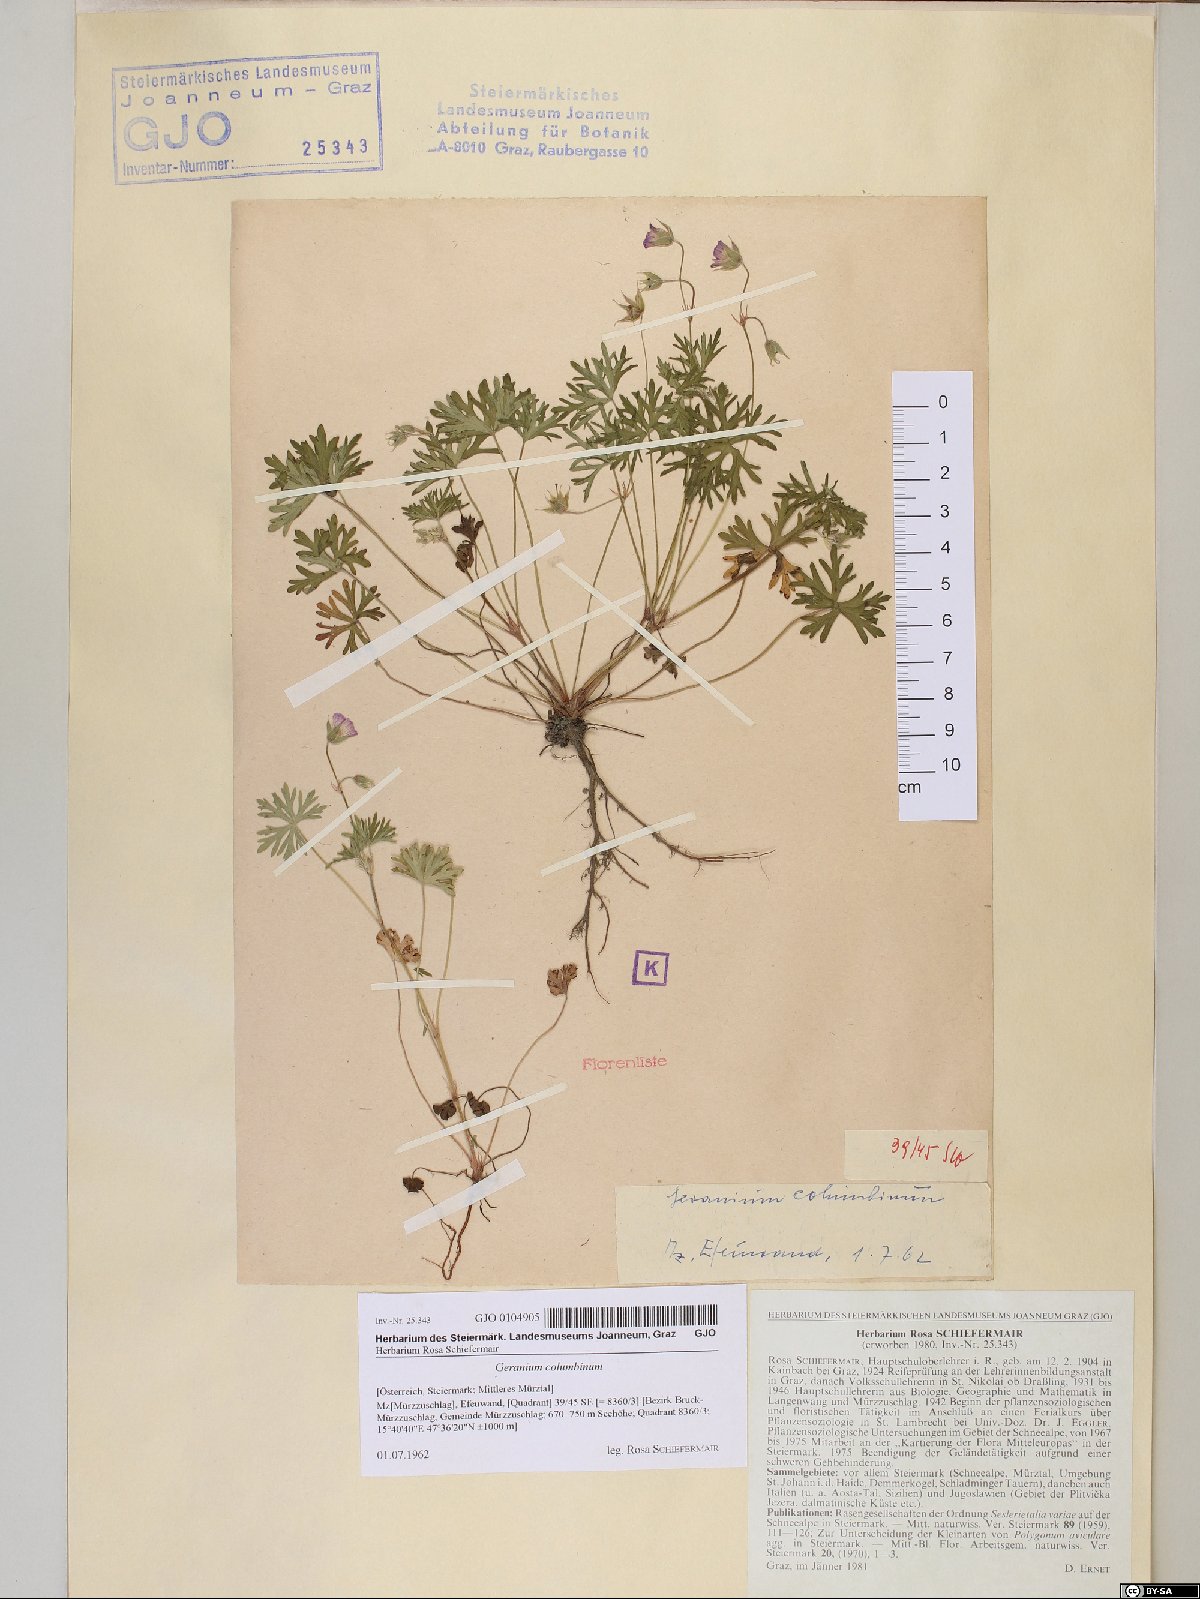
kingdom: Plantae
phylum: Tracheophyta
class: Magnoliopsida
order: Geraniales
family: Geraniaceae
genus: Geranium
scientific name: Geranium columbinum
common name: Long-stalked crane's-bill
